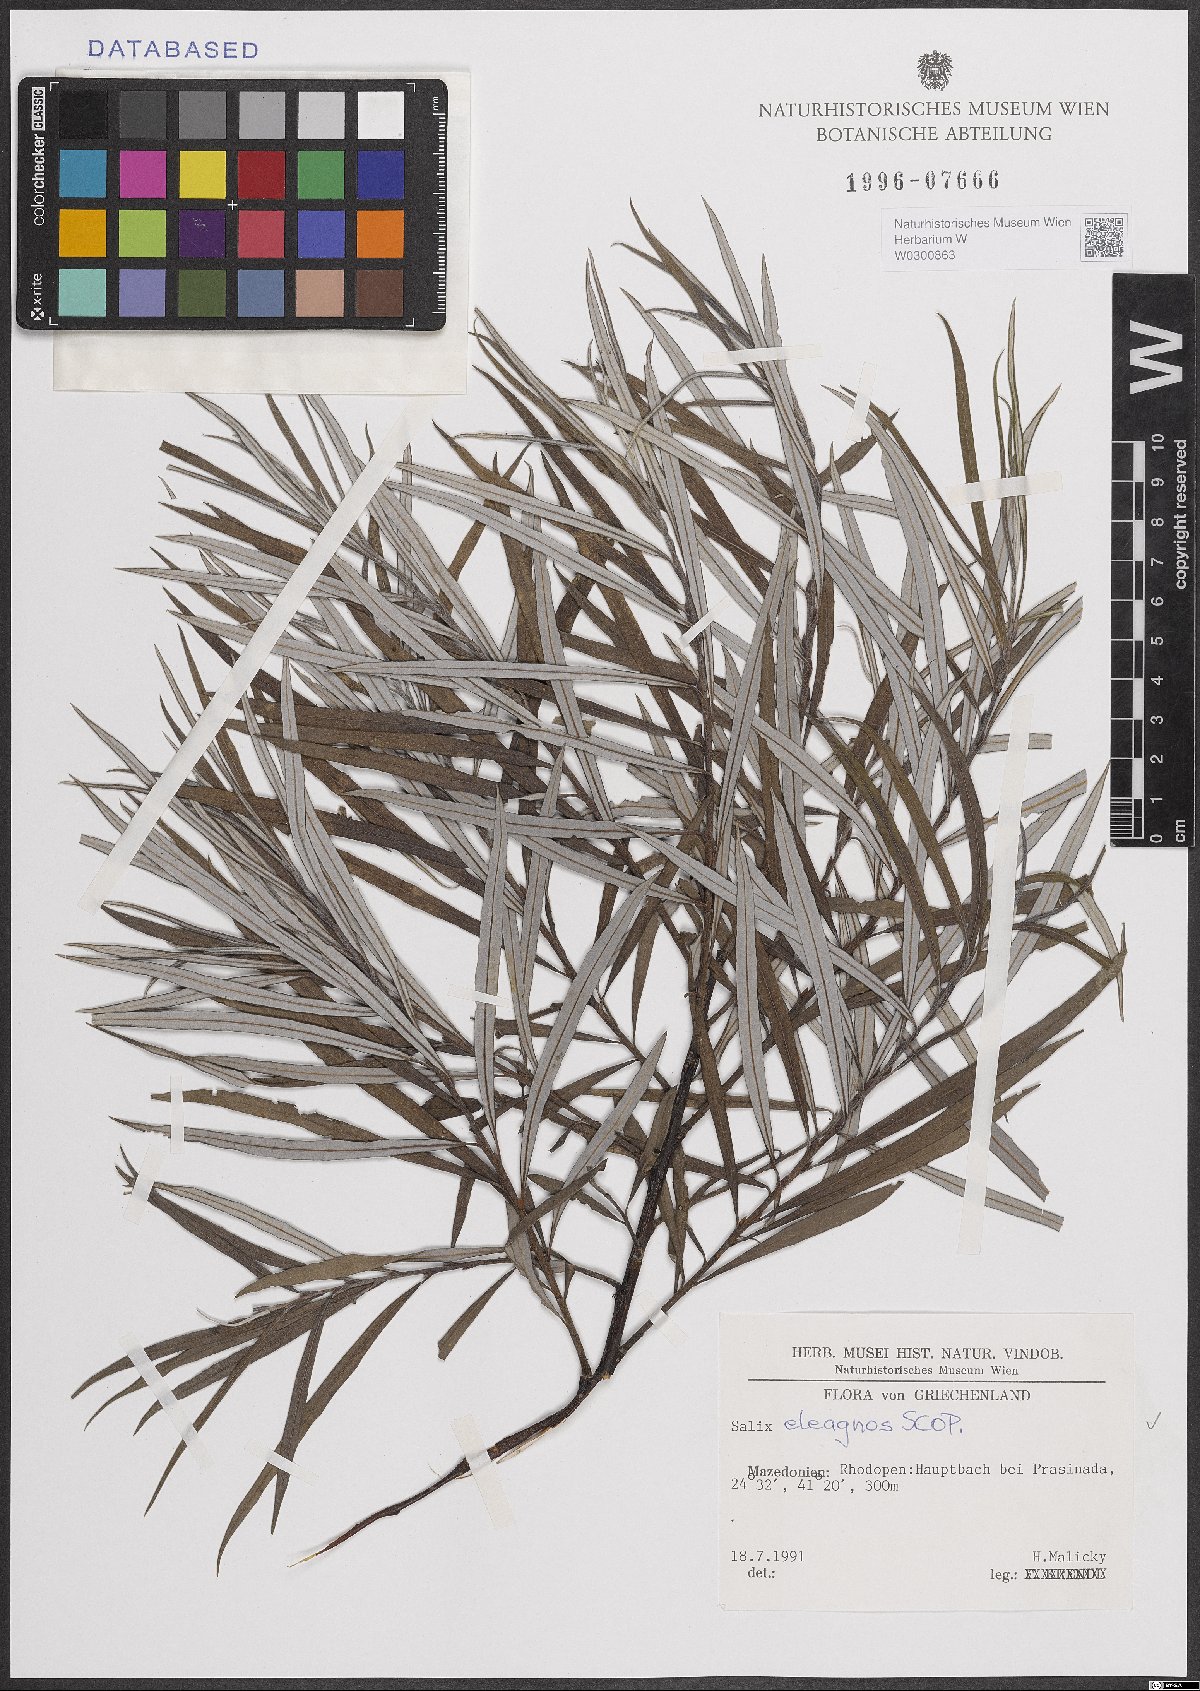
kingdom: Plantae
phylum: Tracheophyta
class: Magnoliopsida
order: Malpighiales
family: Salicaceae
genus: Salix
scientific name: Salix eleagnos
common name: Elaeagnus willow
